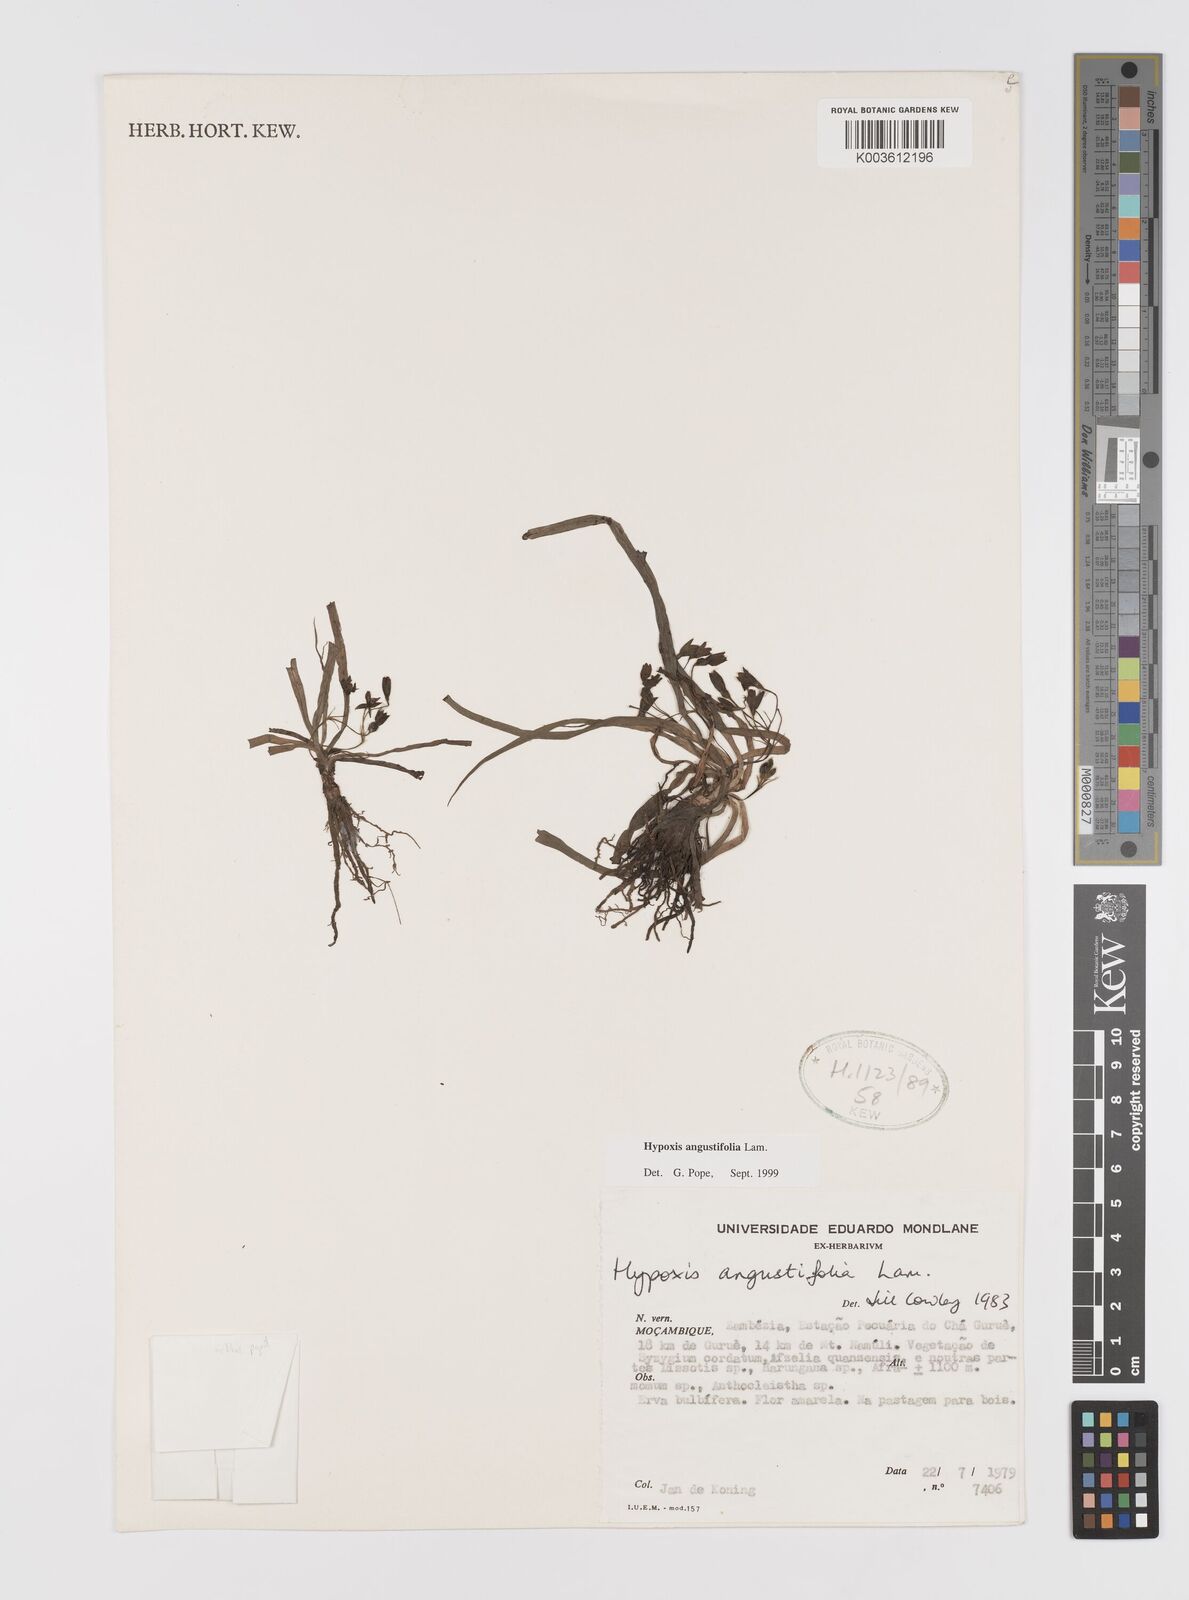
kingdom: Plantae
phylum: Tracheophyta
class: Liliopsida
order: Asparagales
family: Hypoxidaceae
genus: Hypoxis
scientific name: Hypoxis angustifolia
